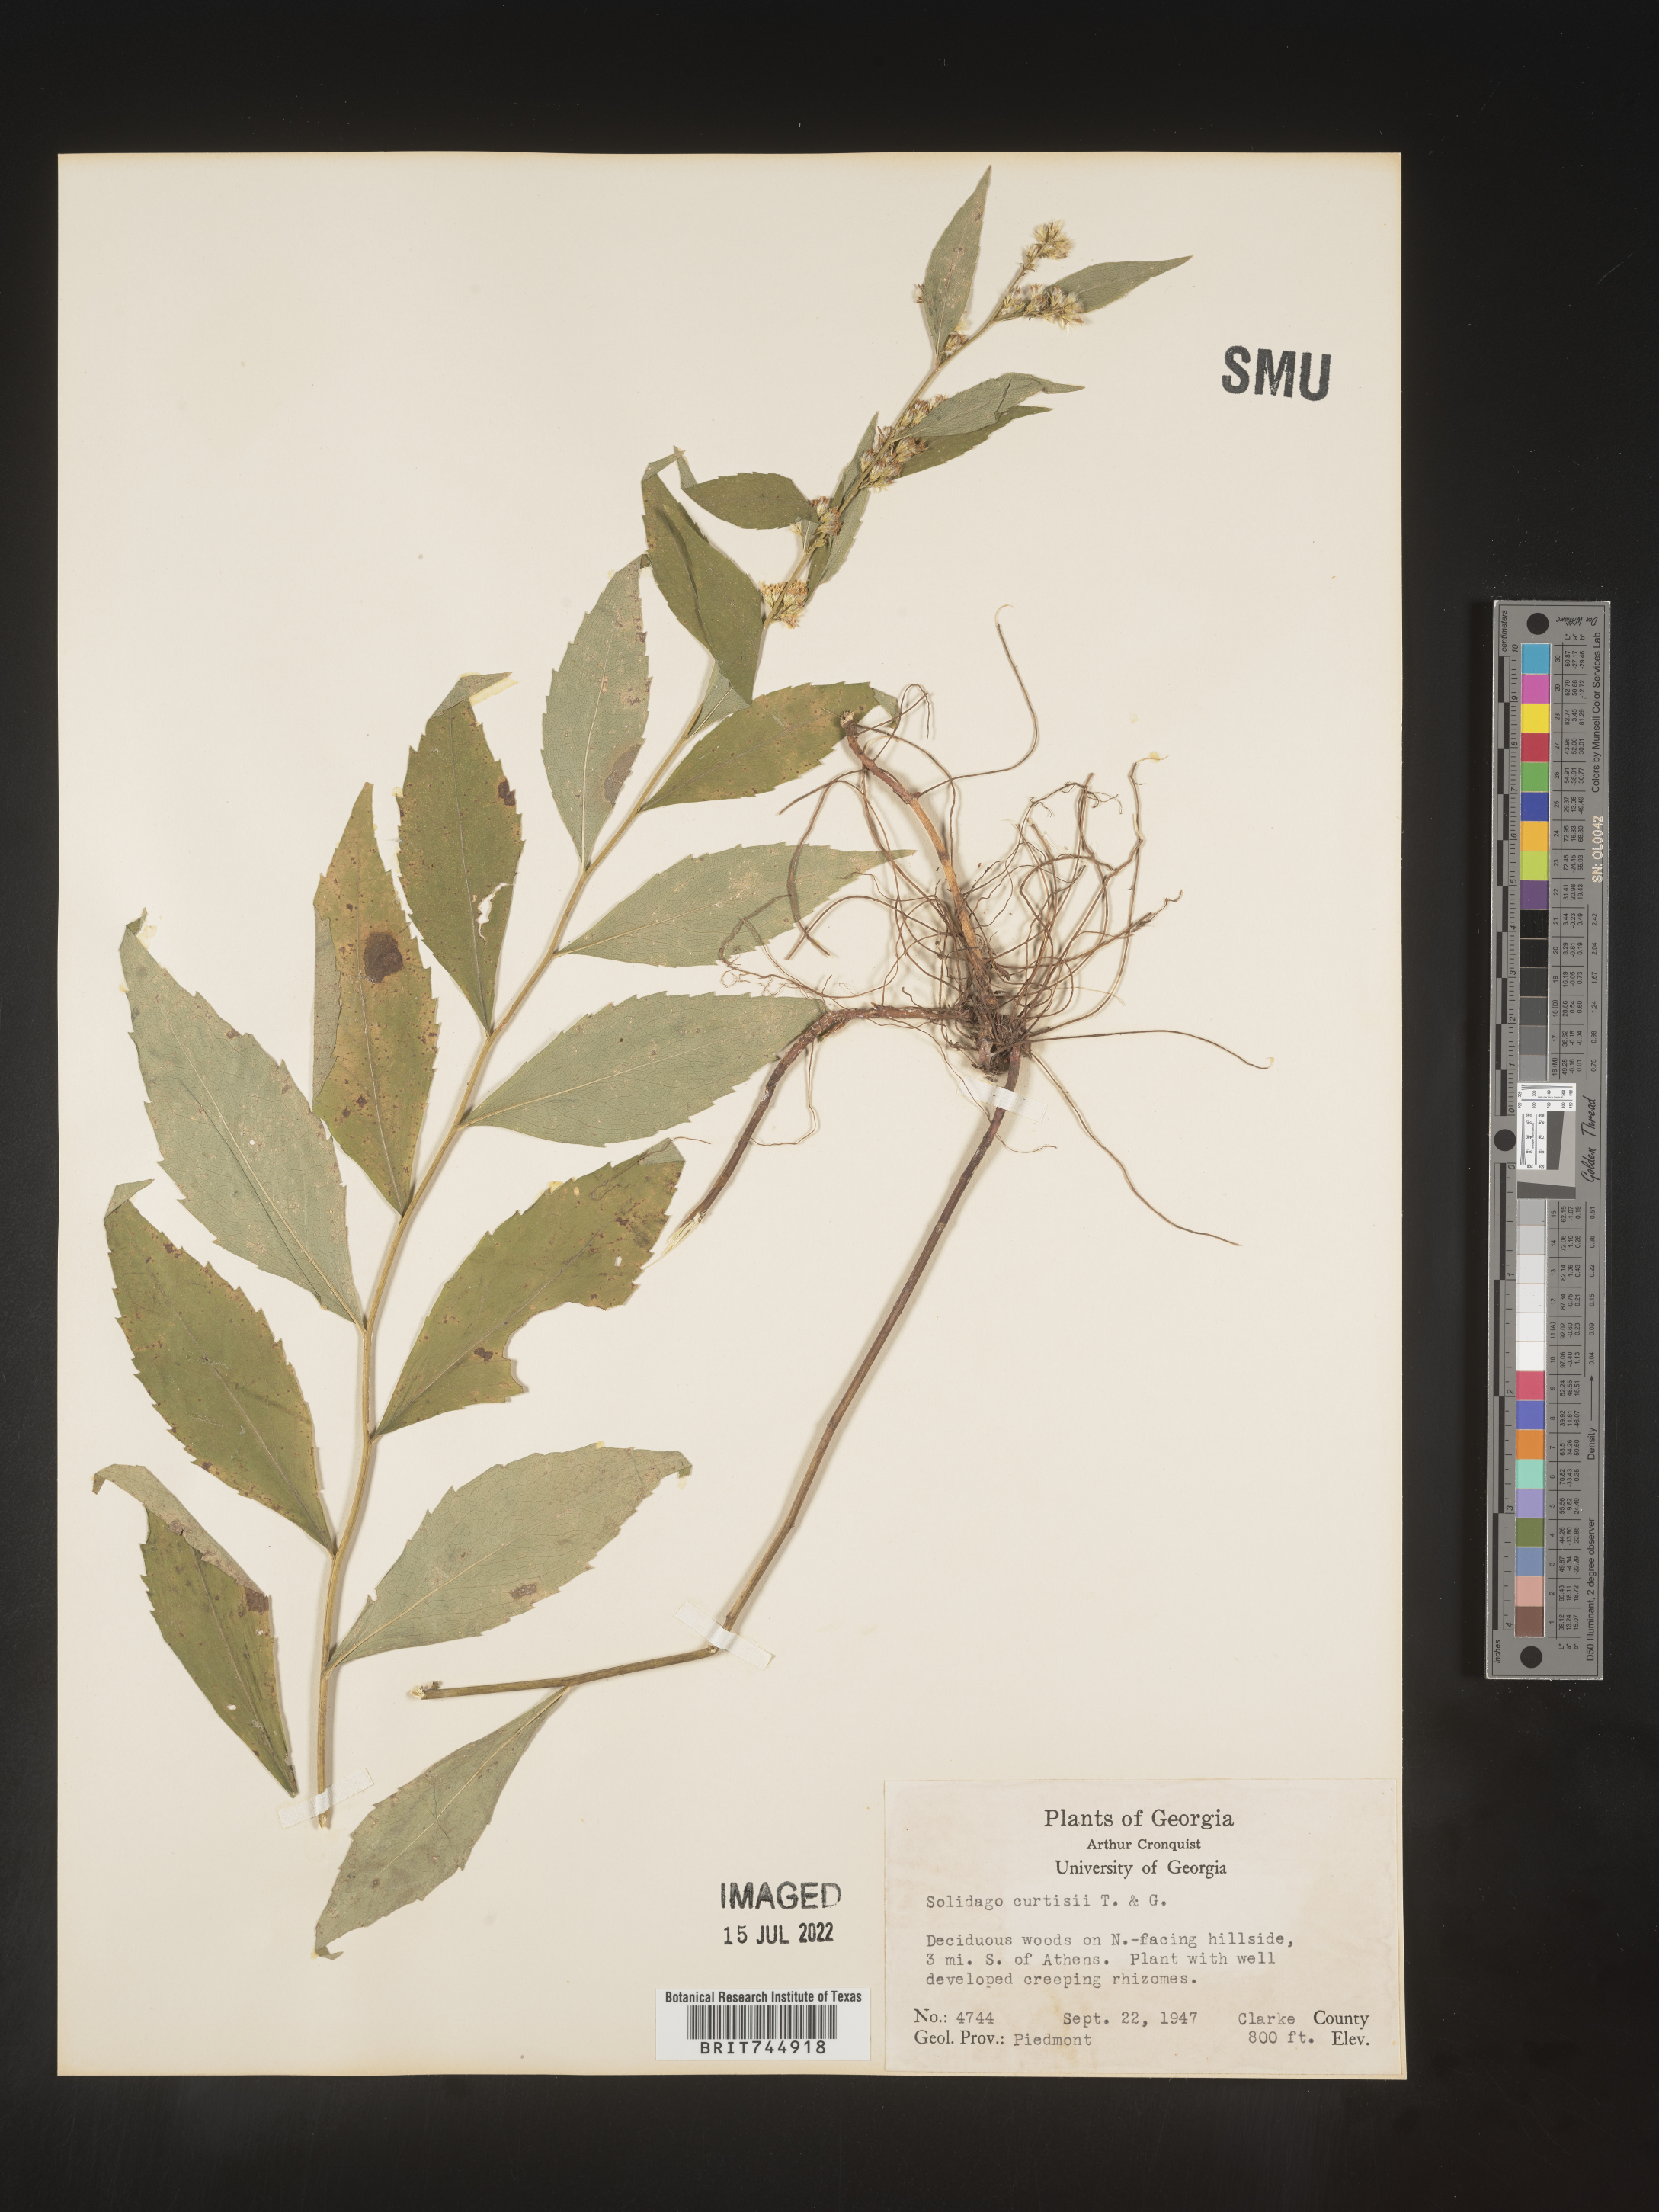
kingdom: Plantae
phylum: Tracheophyta
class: Magnoliopsida
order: Asterales
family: Asteraceae
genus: Solidago
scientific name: Solidago curtisii
